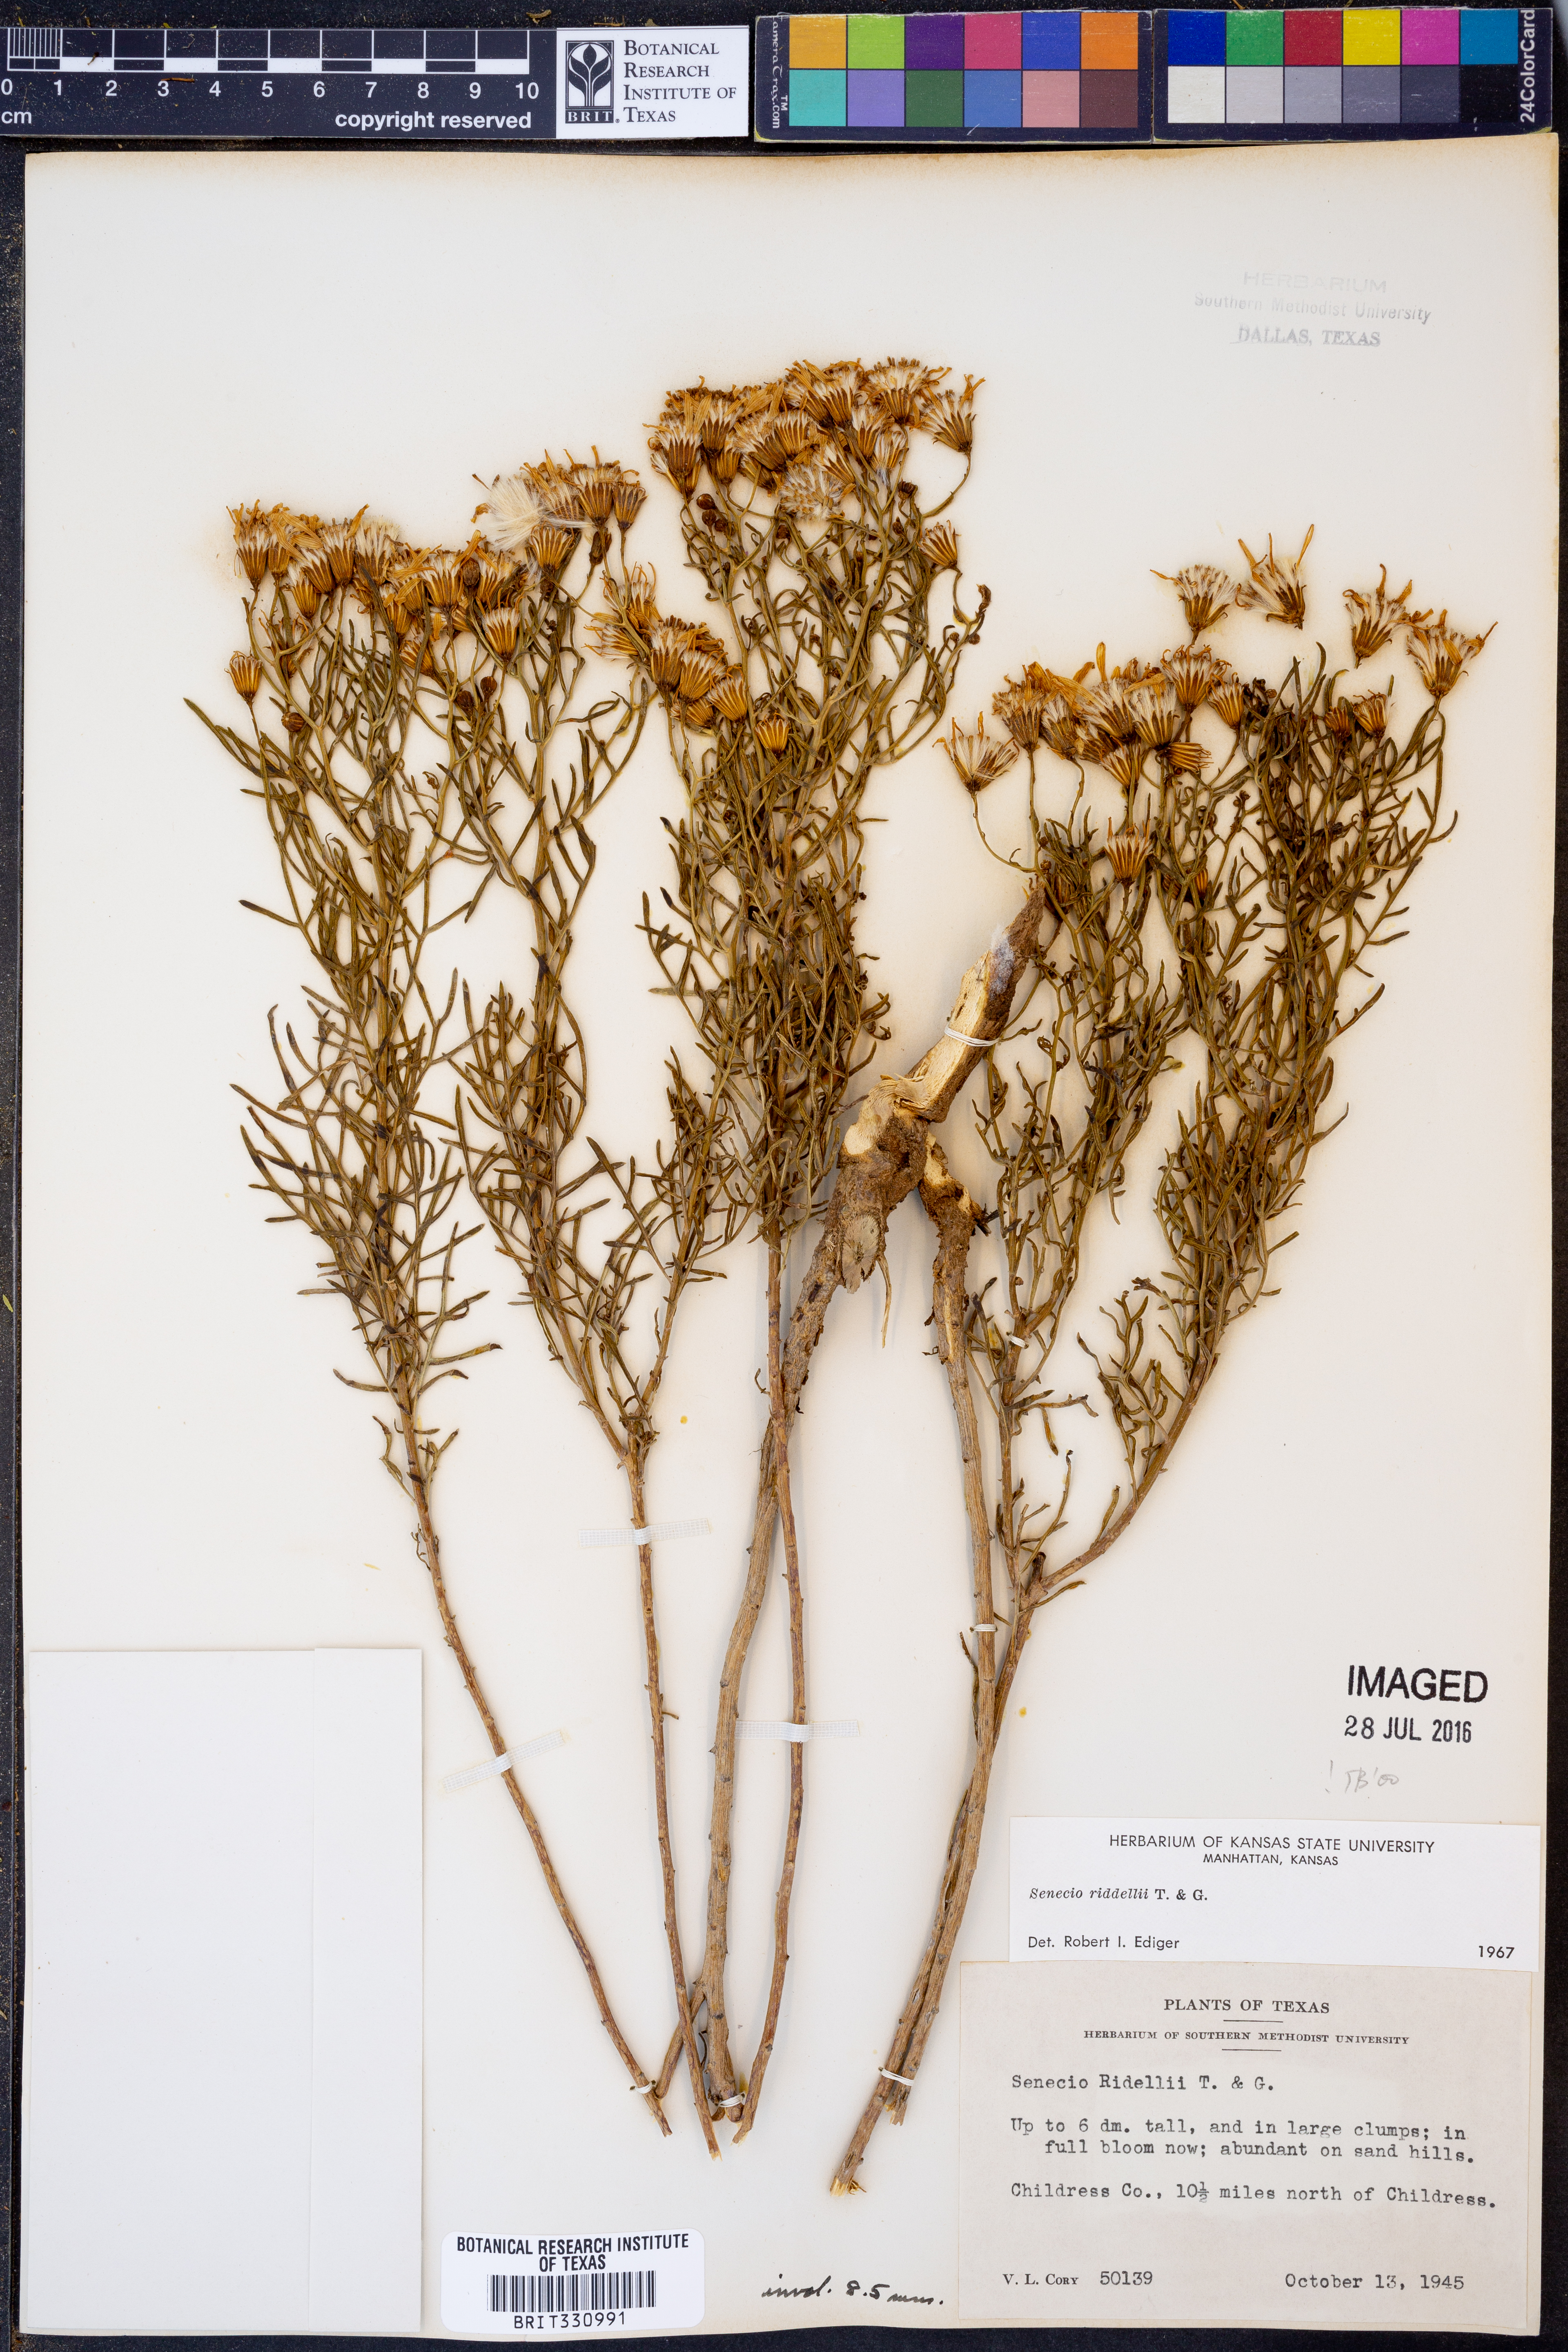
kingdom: Plantae
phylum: Tracheophyta
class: Magnoliopsida
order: Asterales
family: Asteraceae
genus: Senecio
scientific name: Senecio riddellii
